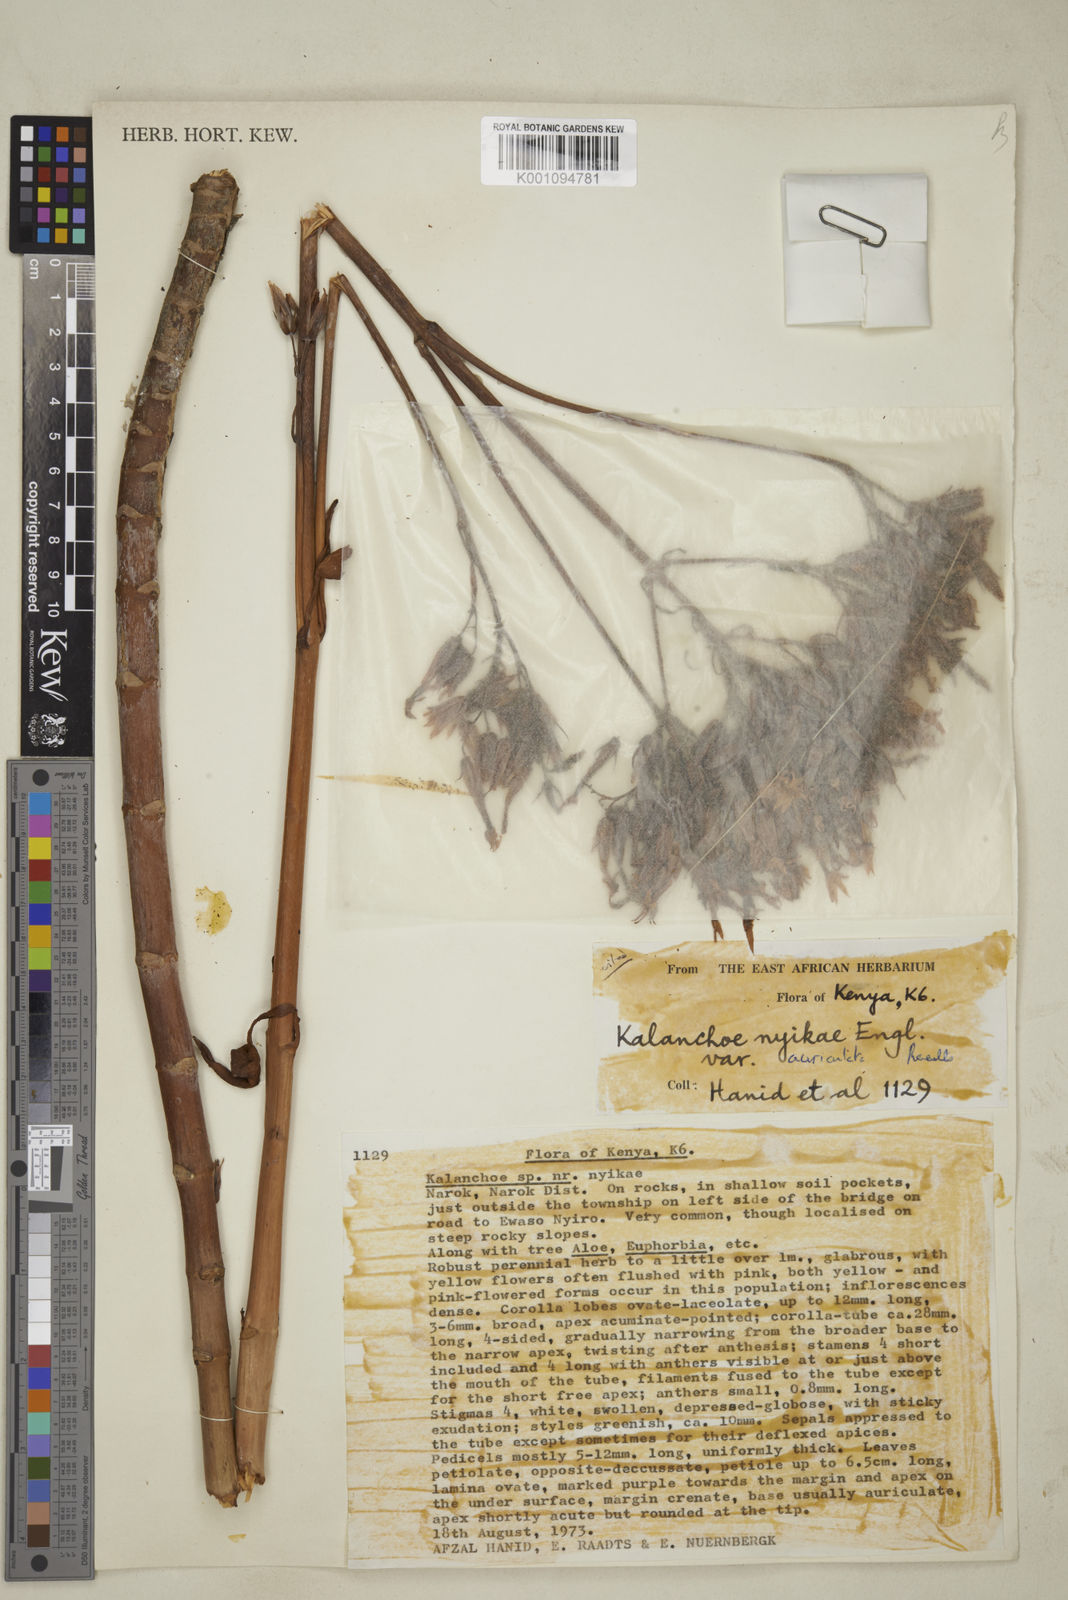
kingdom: Plantae
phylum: Tracheophyta
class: Magnoliopsida
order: Saxifragales
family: Crassulaceae
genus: Kalanchoe
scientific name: Kalanchoe nyikae
